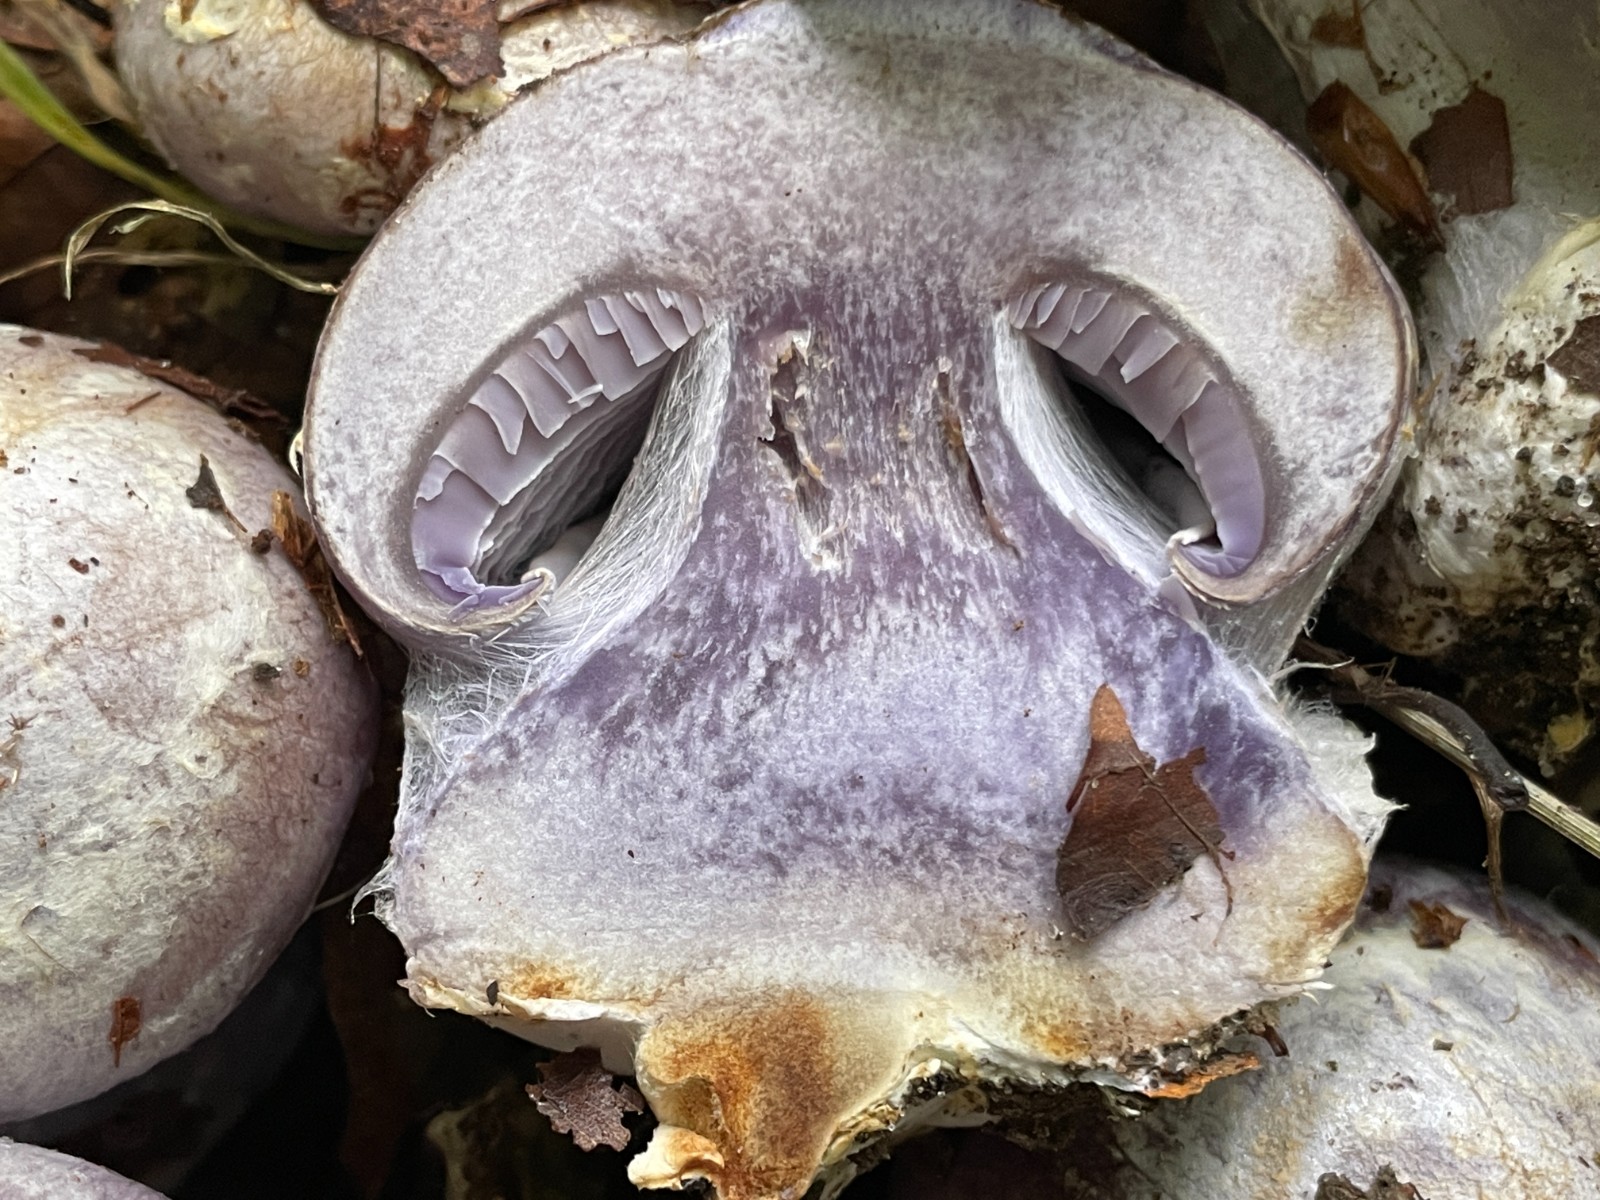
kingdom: Fungi
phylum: Basidiomycota
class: Agaricomycetes
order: Agaricales
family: Cortinariaceae
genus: Cortinarius
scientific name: Cortinarius caerulescens
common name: blåkødet slørhat
